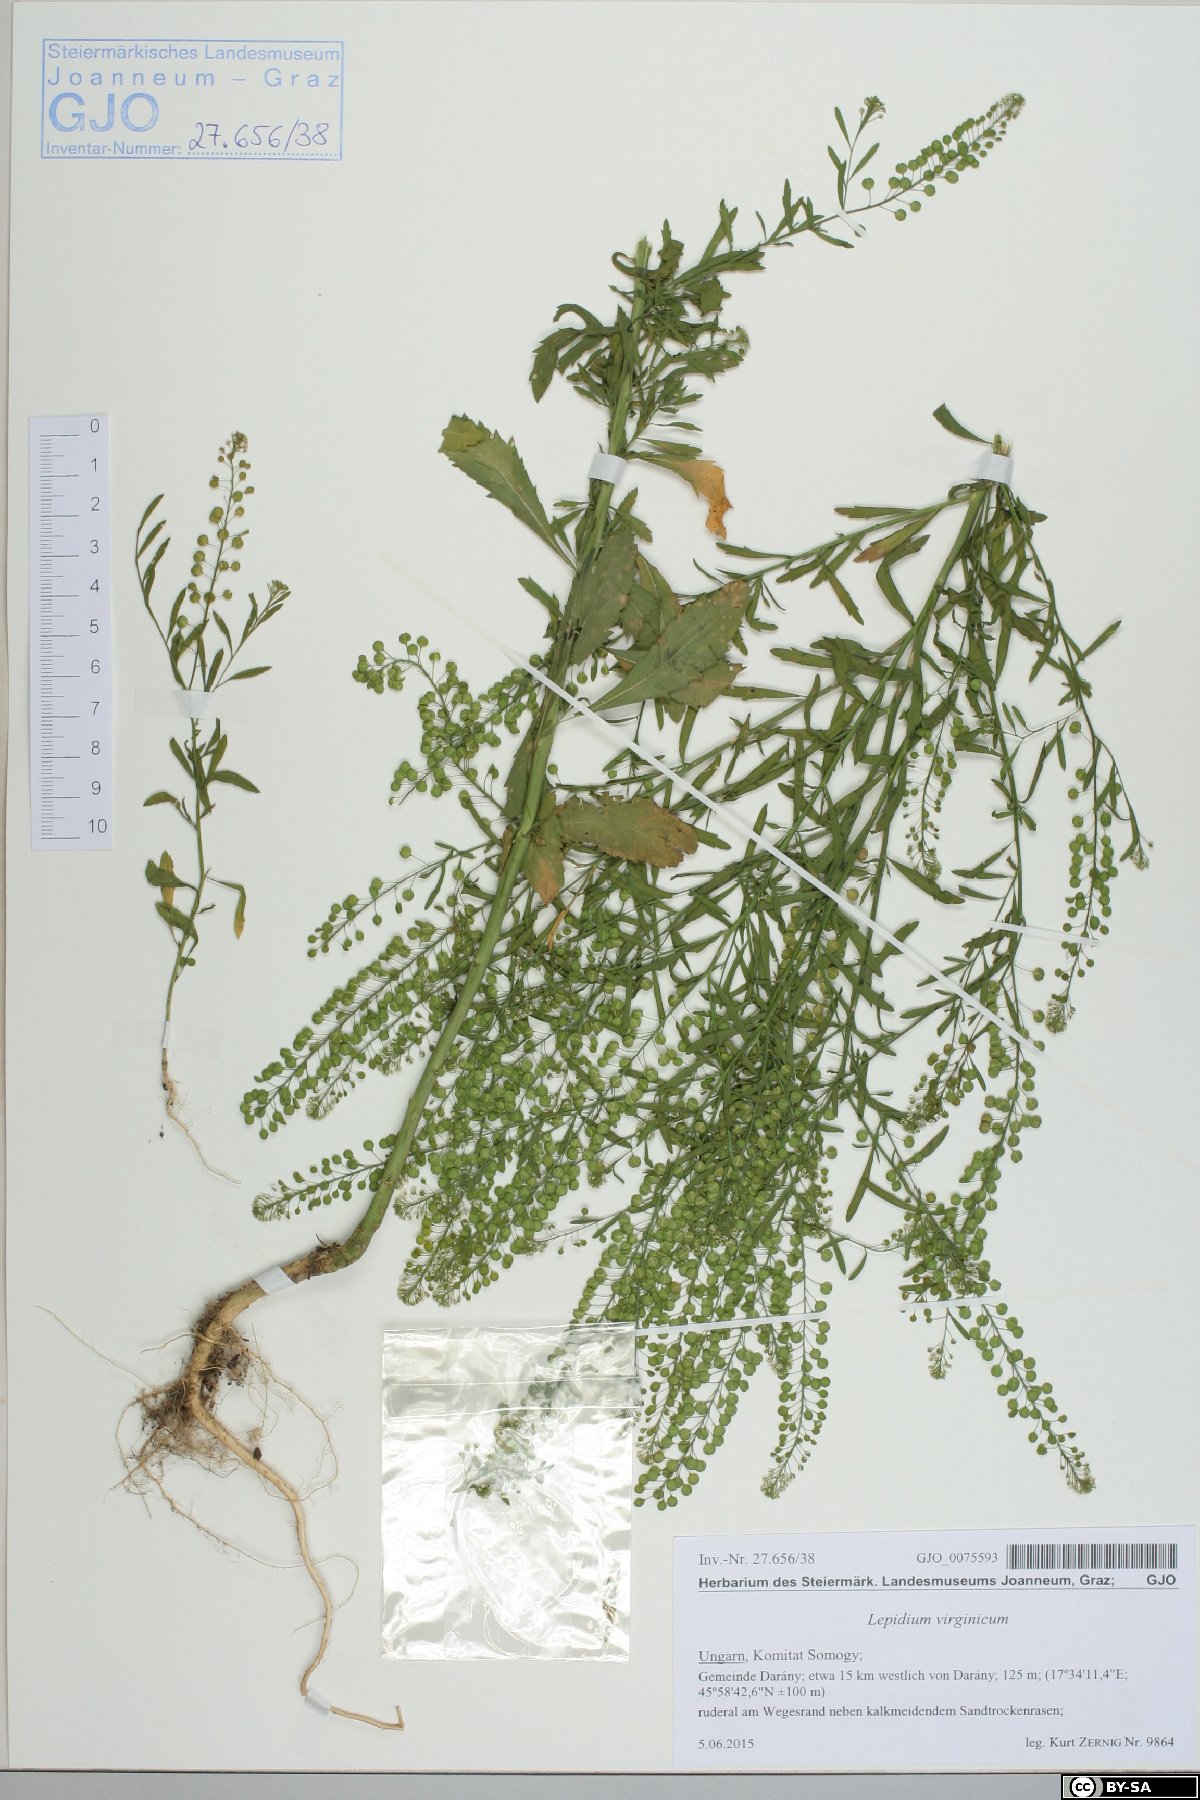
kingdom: Plantae
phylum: Tracheophyta
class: Magnoliopsida
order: Brassicales
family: Brassicaceae
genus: Lepidium
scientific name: Lepidium virginicum
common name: Least pepperwort
